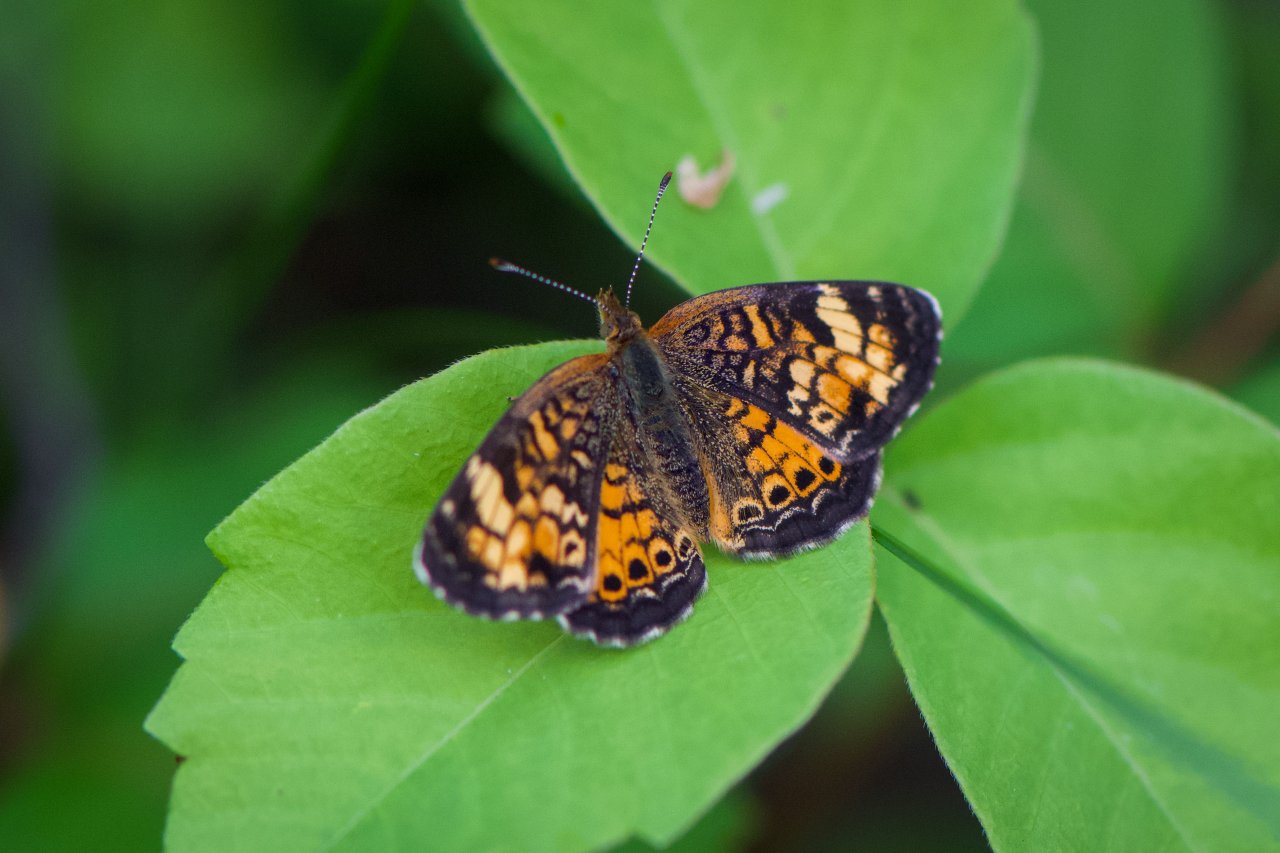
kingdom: Animalia
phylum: Arthropoda
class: Insecta
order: Lepidoptera
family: Nymphalidae
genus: Phyciodes
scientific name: Phyciodes tharos
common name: Northern Crescent
